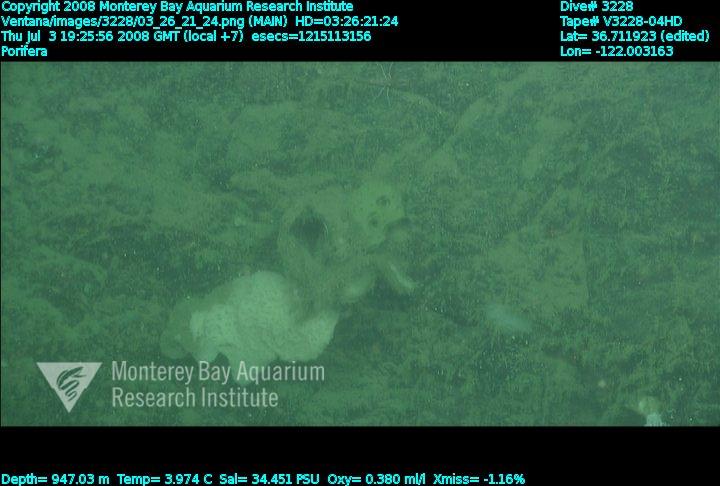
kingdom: Animalia
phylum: Porifera
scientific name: Porifera
